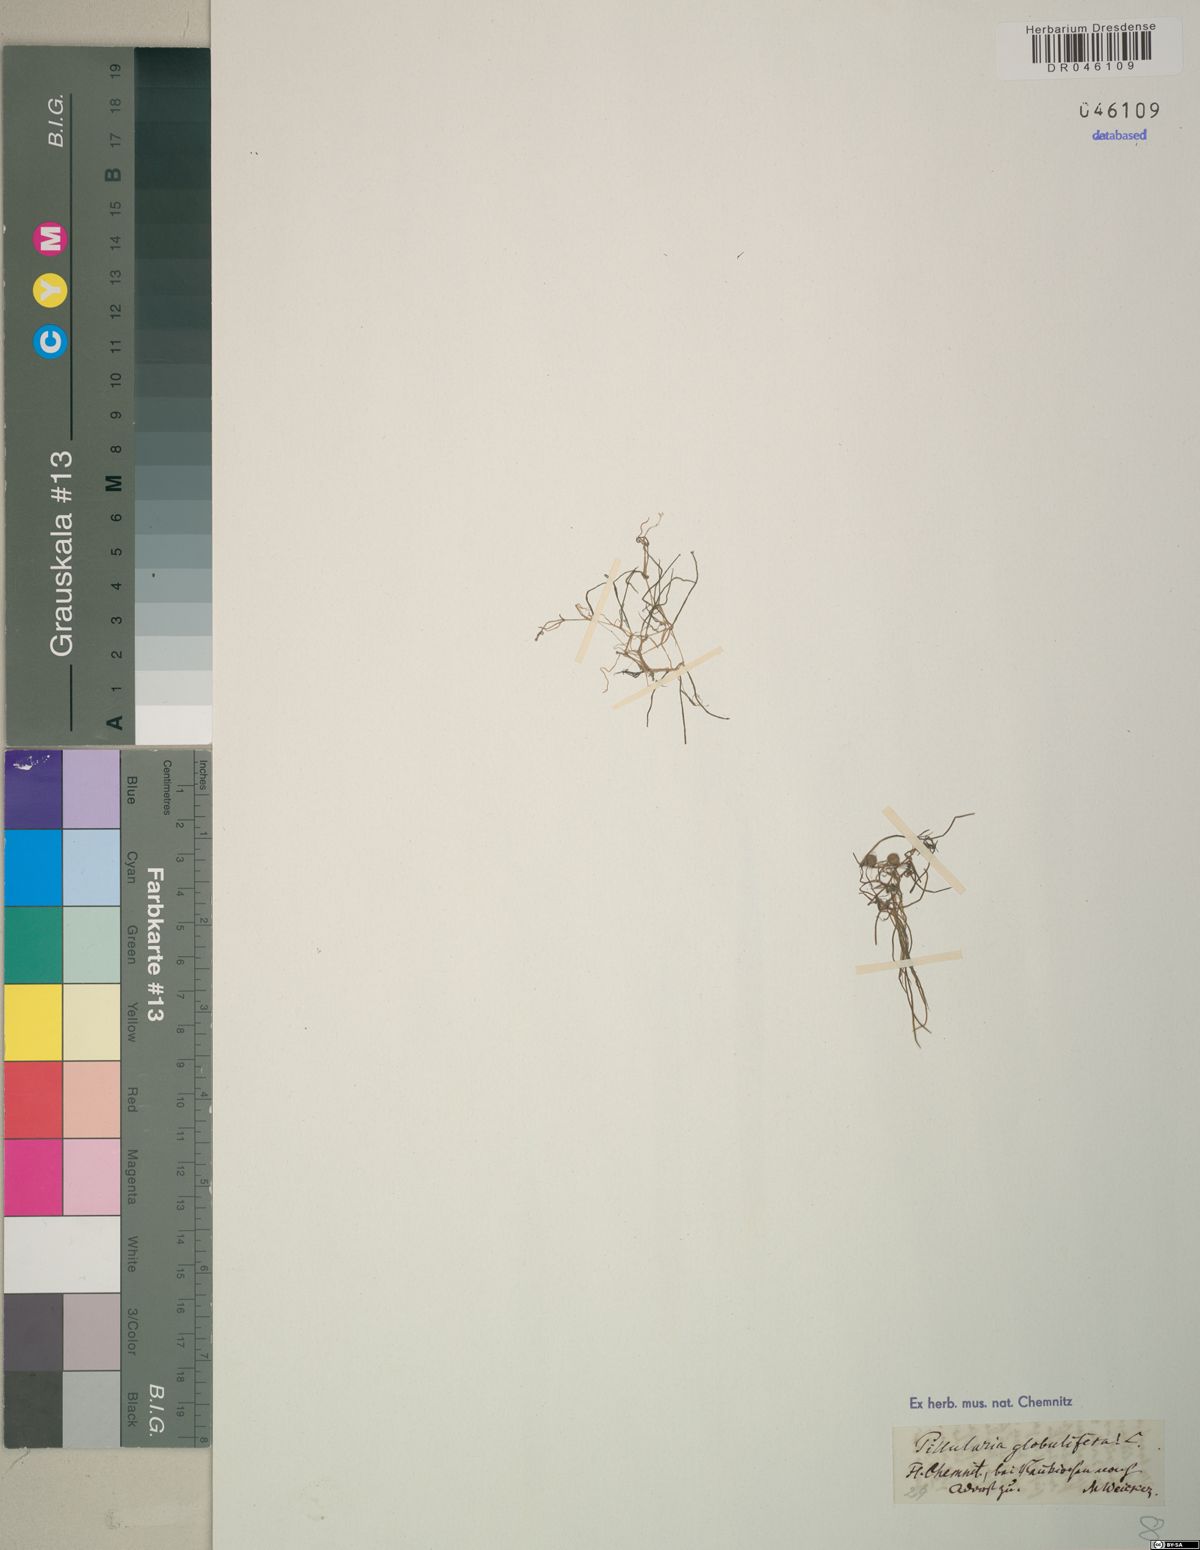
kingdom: Plantae
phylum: Tracheophyta
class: Polypodiopsida
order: Salviniales
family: Marsileaceae
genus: Pilularia
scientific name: Pilularia globulifera
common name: Pillwort
